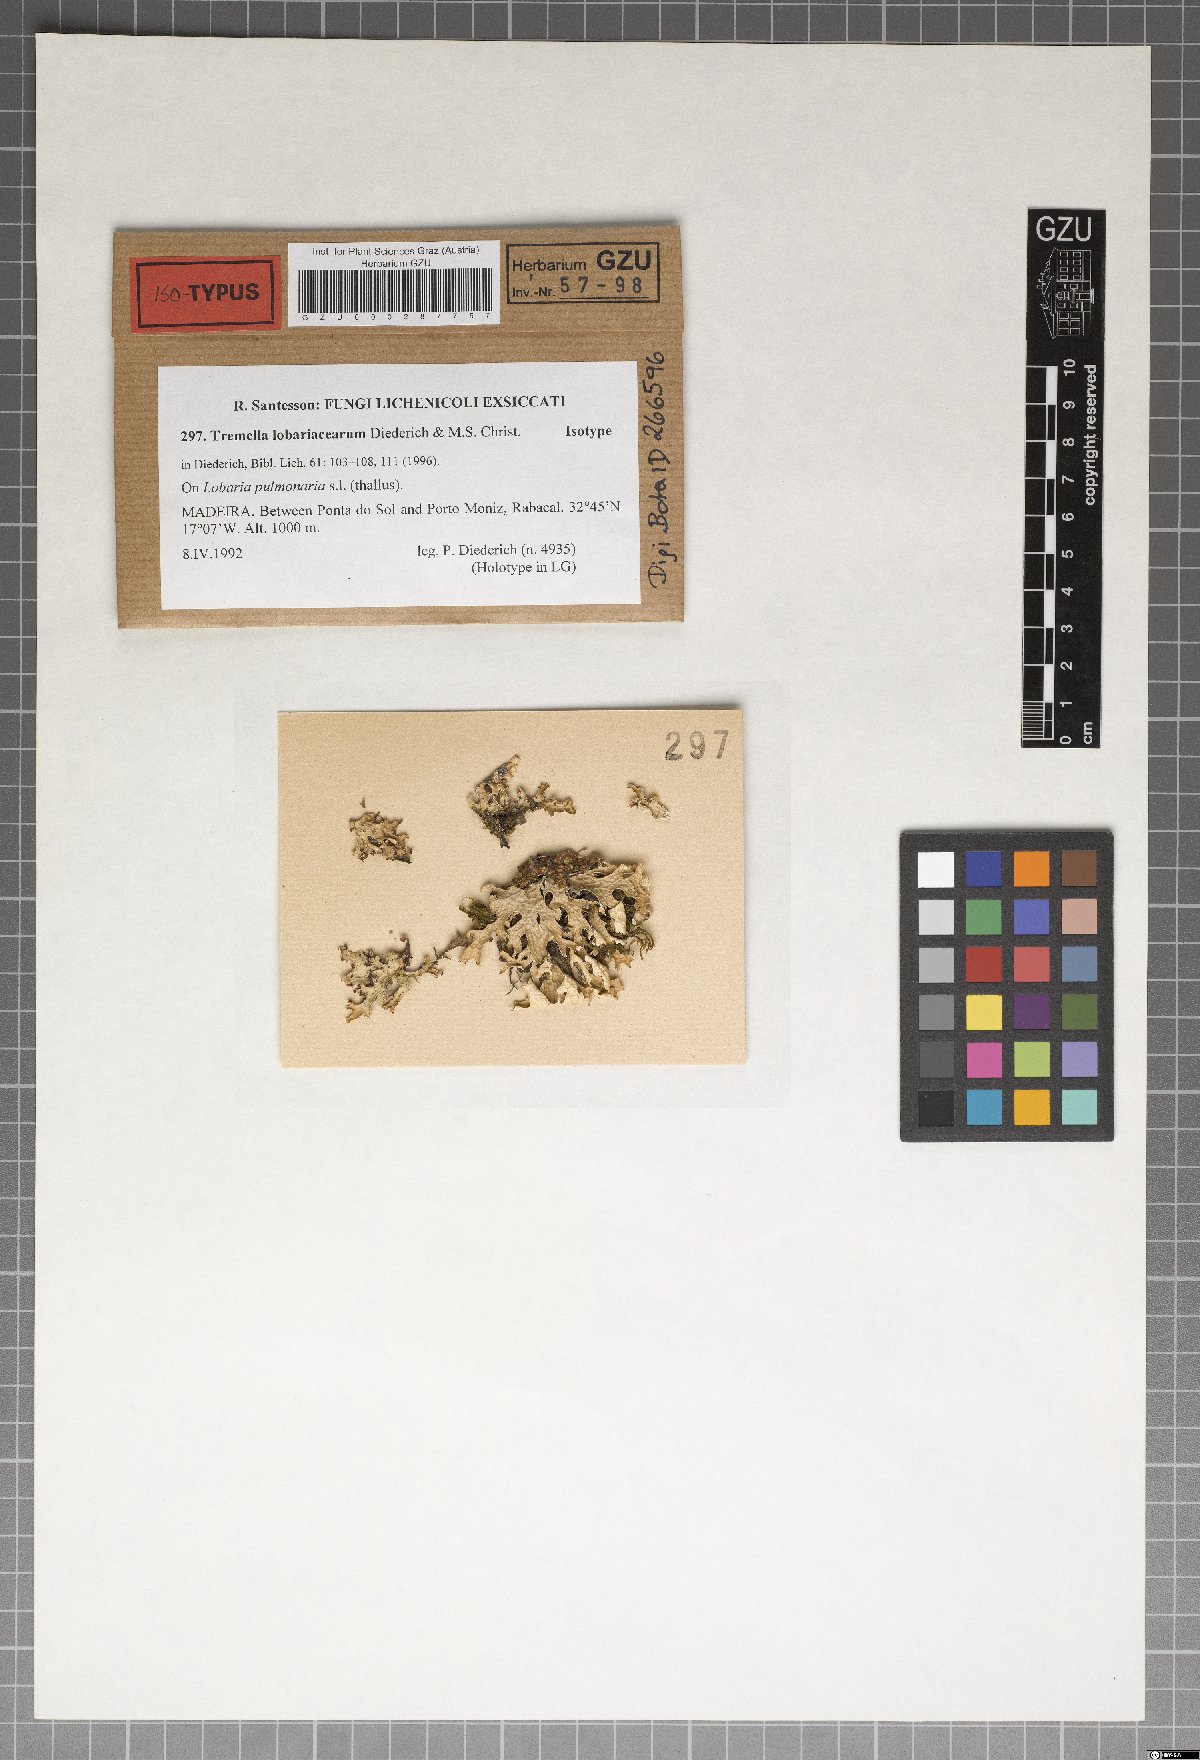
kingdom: Fungi
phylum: Basidiomycota
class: Tremellomycetes
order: Tremellales
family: Tremellaceae
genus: Tremella
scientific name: Tremella lobariacearum
